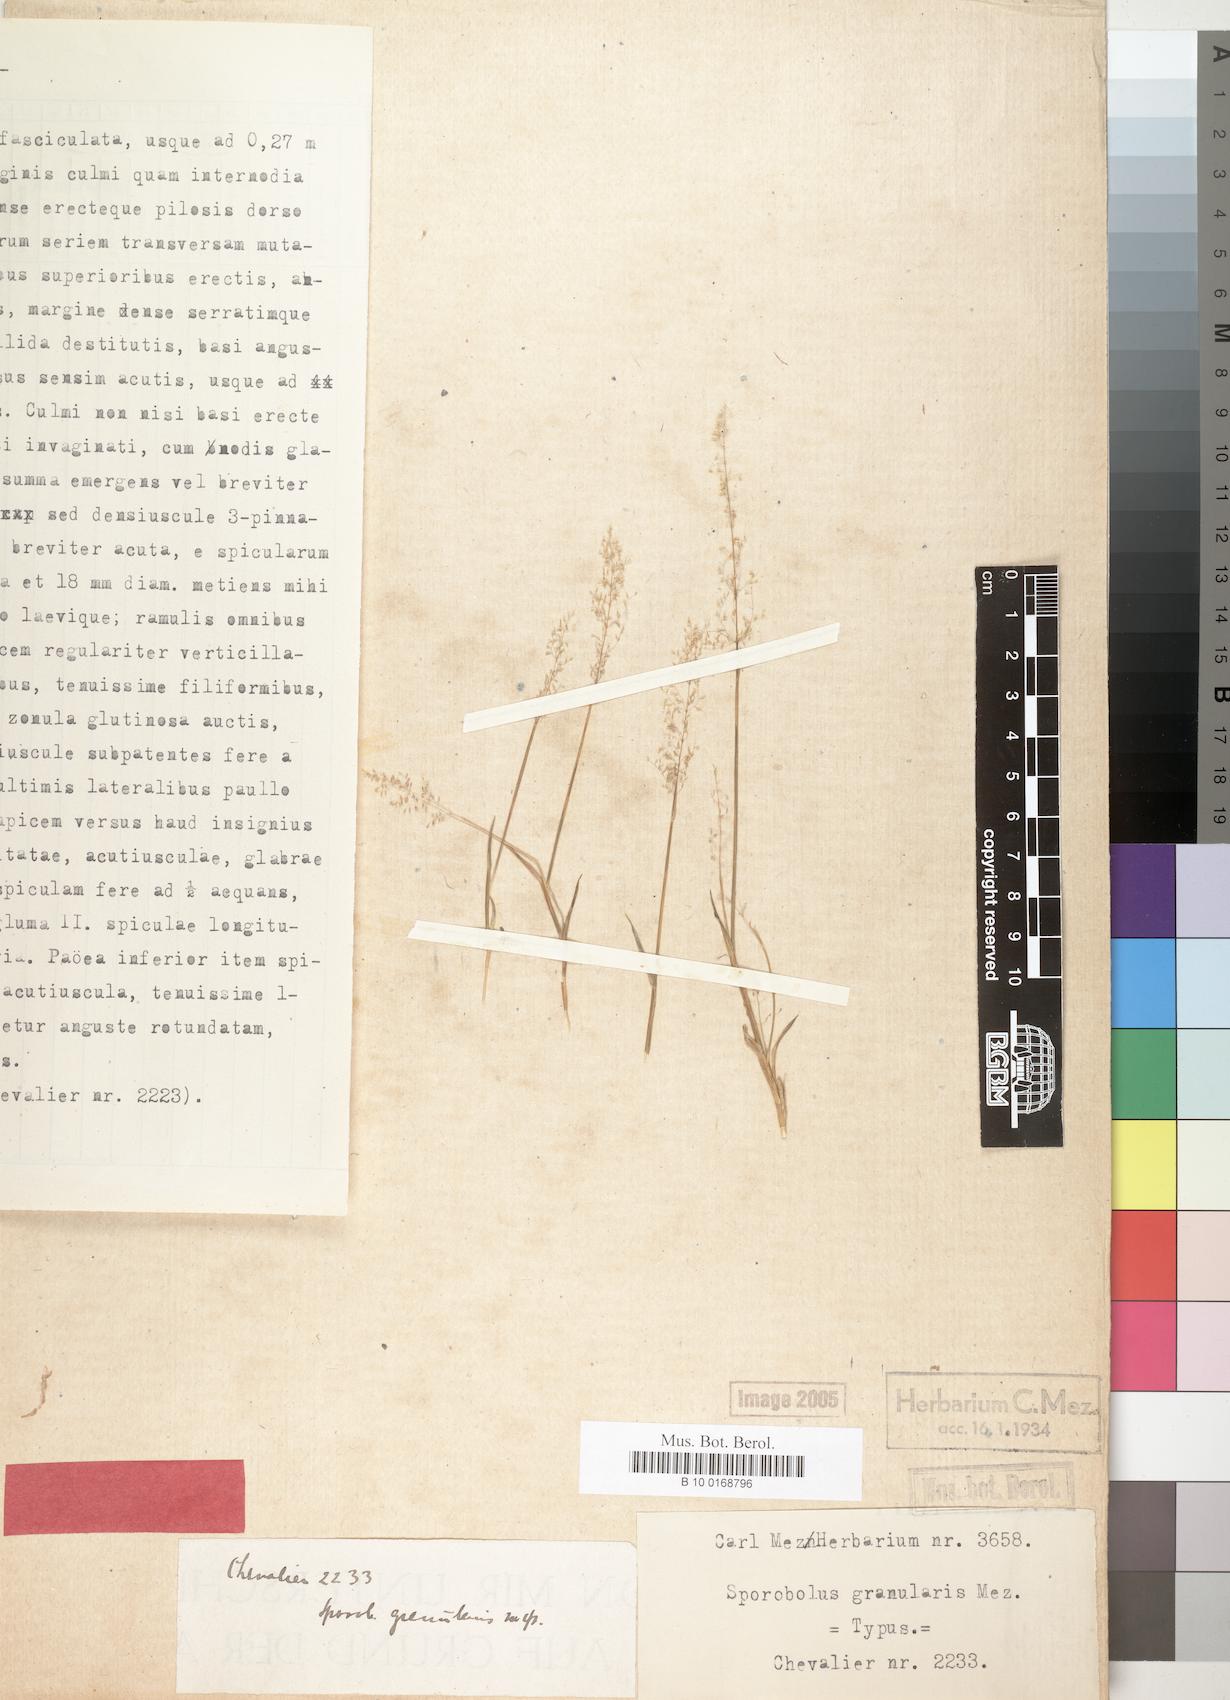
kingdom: Plantae
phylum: Tracheophyta
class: Liliopsida
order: Poales
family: Poaceae
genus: Sporobolus
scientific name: Sporobolus stolzii
